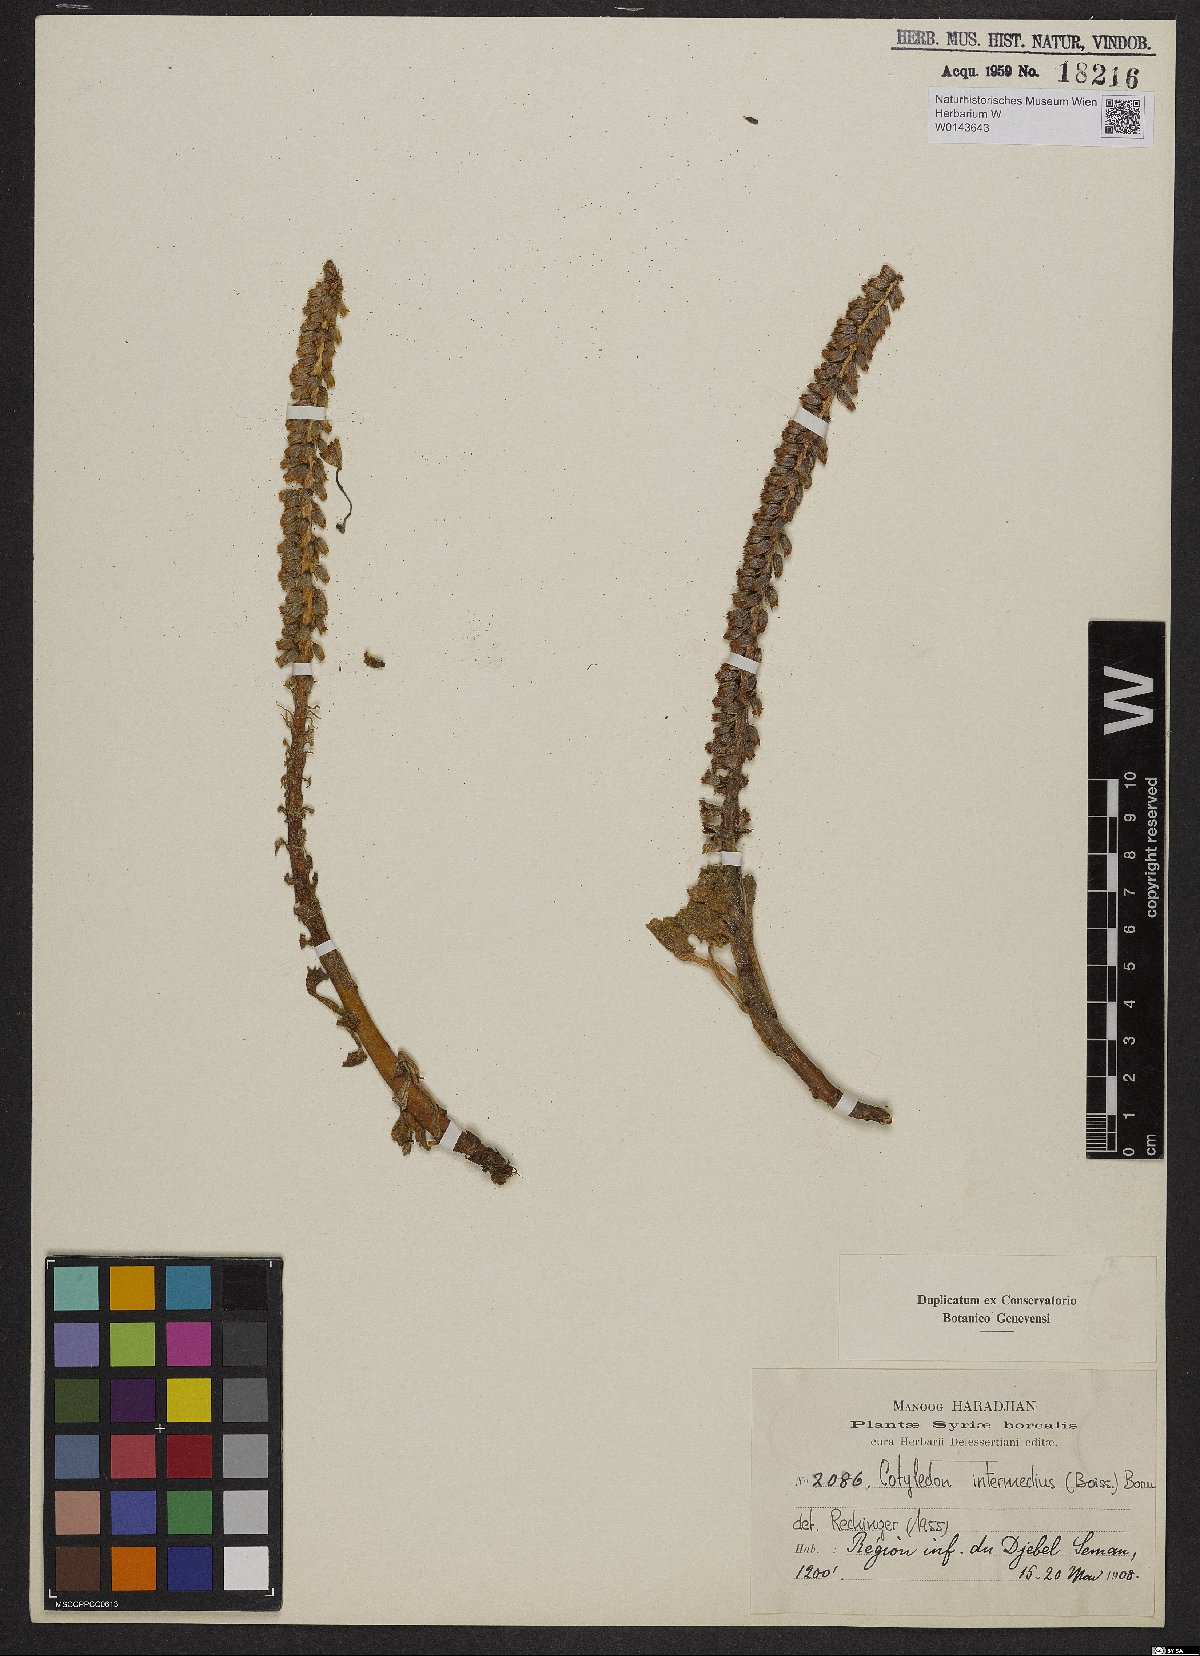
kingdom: Plantae
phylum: Tracheophyta
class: Magnoliopsida
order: Saxifragales
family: Crassulaceae
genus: Umbilicus
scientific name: Umbilicus horizontalis
